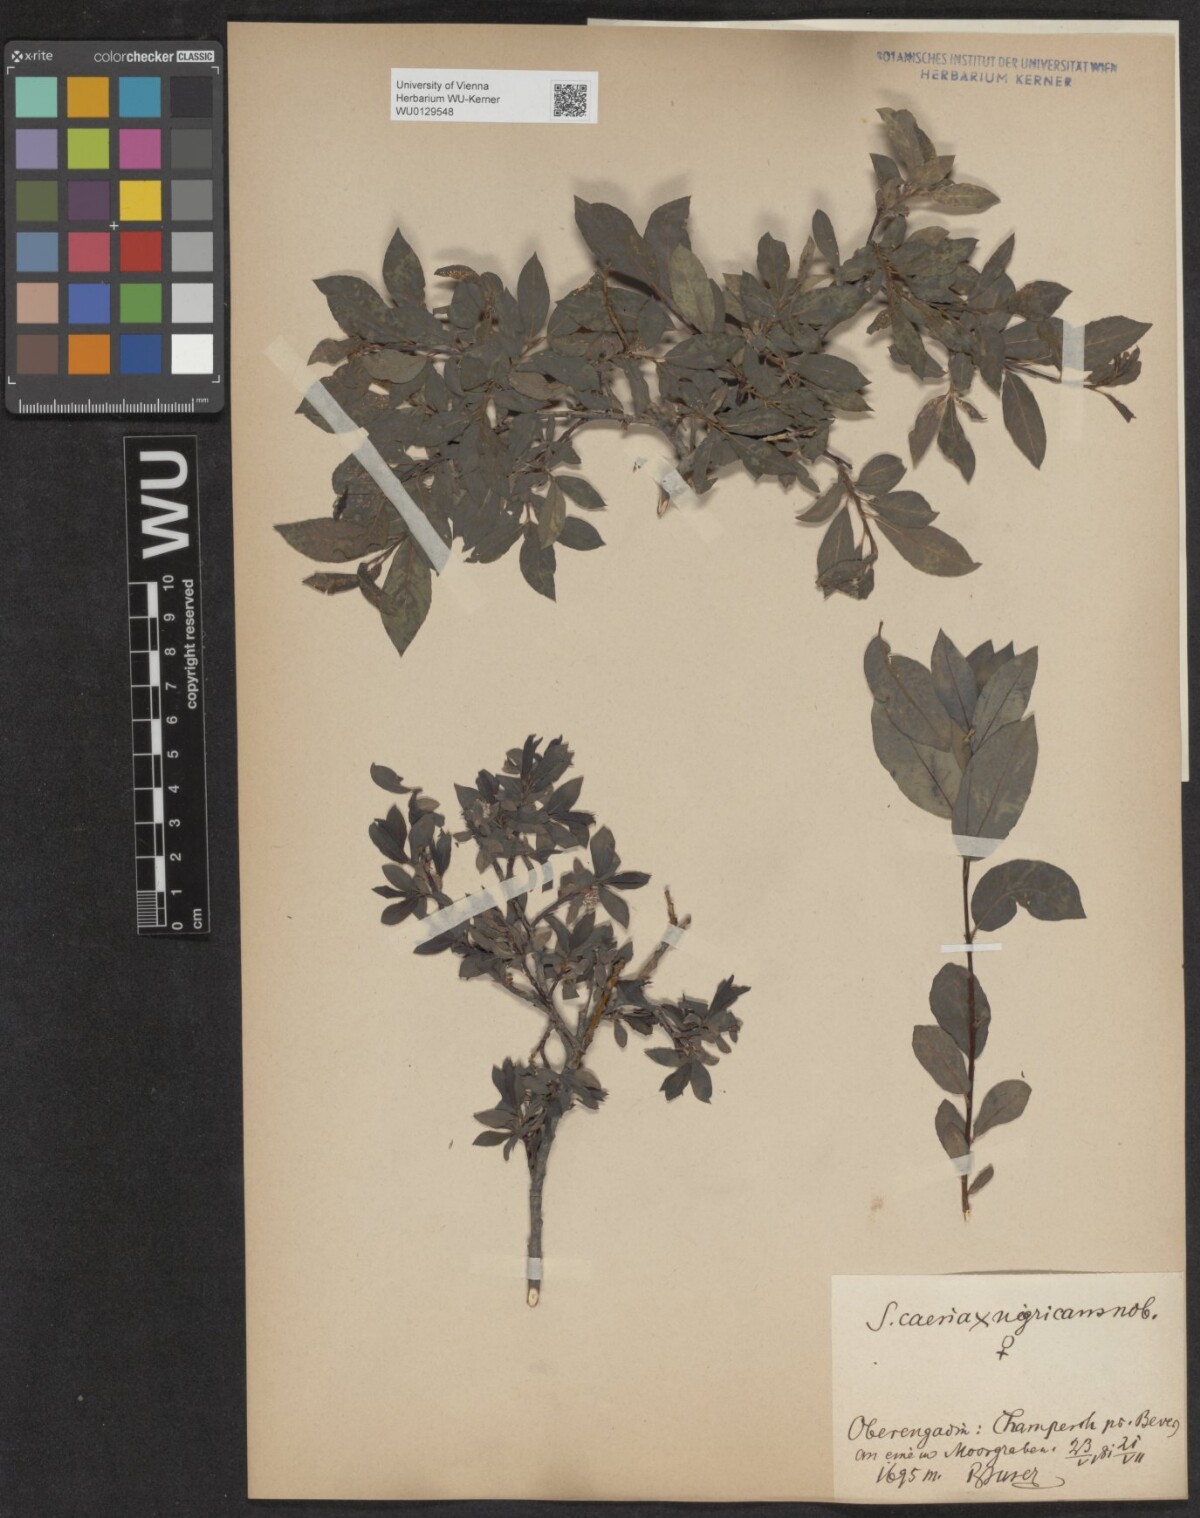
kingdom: Plantae
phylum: Tracheophyta
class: Magnoliopsida
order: Malpighiales
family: Salicaceae
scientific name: Salicaceae
